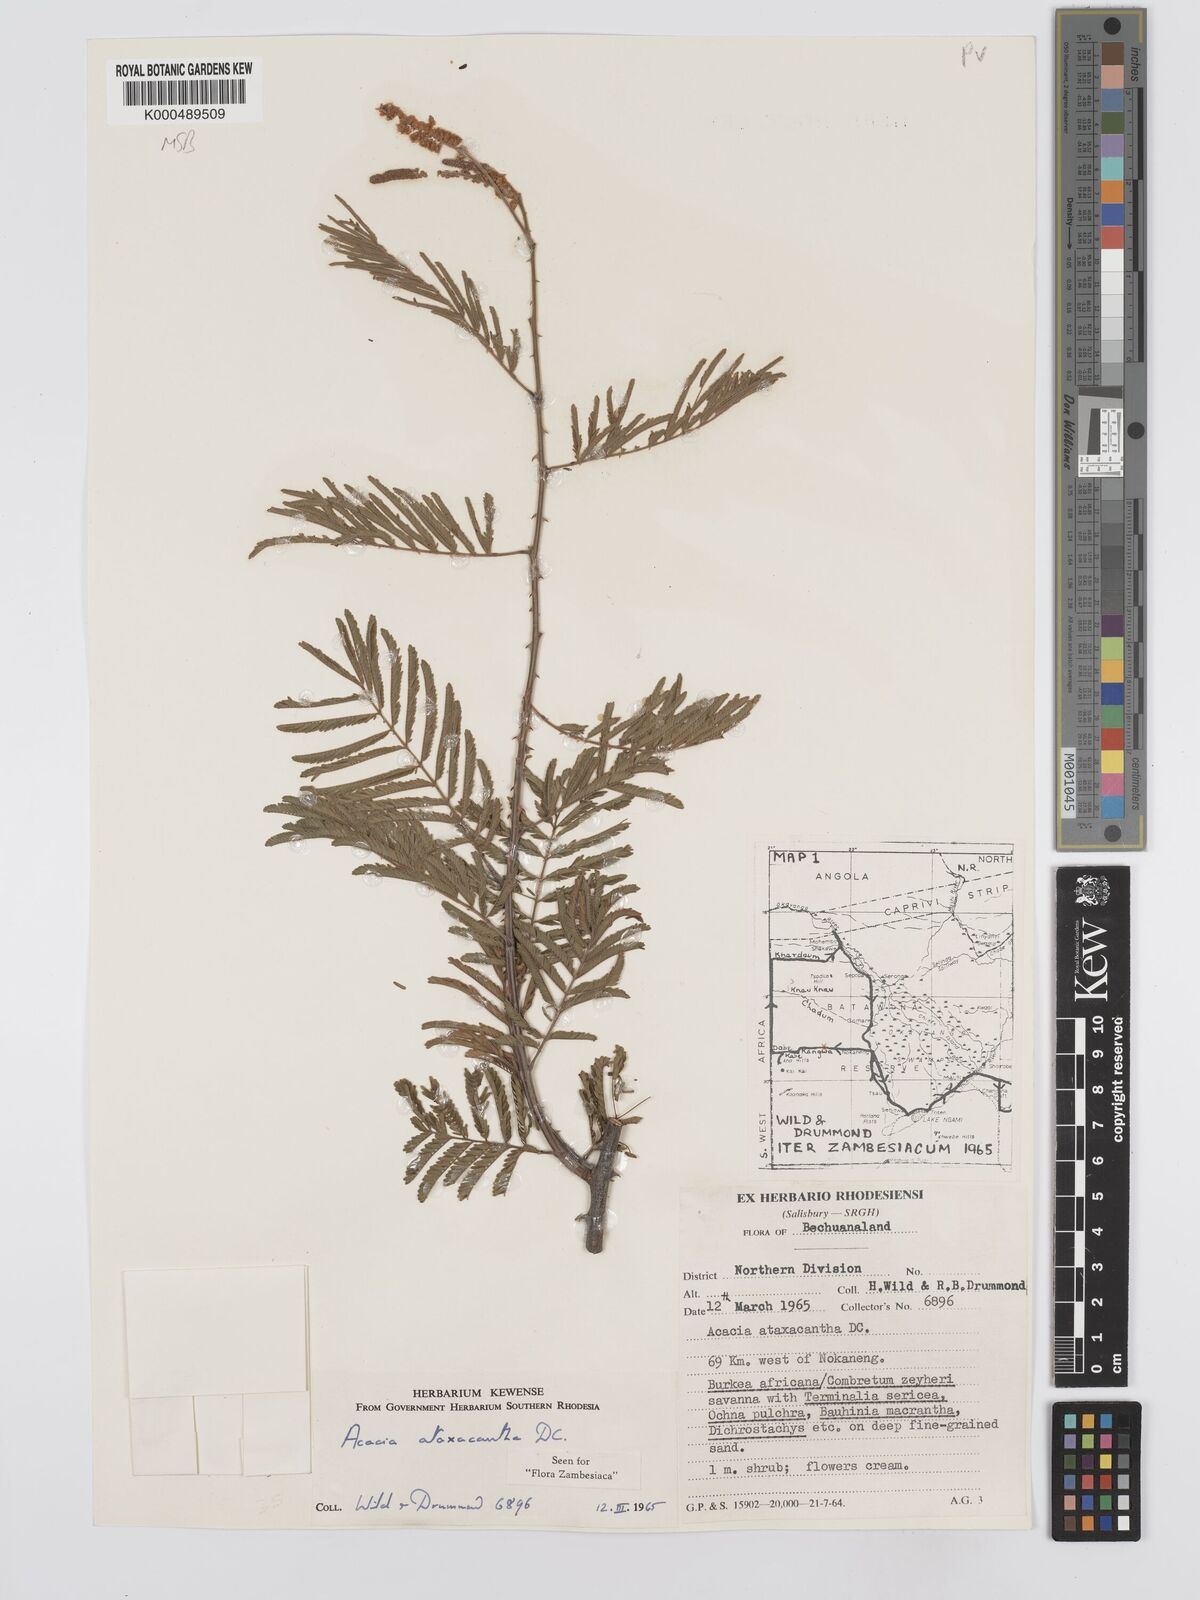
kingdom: Plantae
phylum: Tracheophyta
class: Magnoliopsida
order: Fabales
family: Fabaceae
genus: Senegalia
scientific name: Senegalia ataxacantha
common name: Flame acacia
